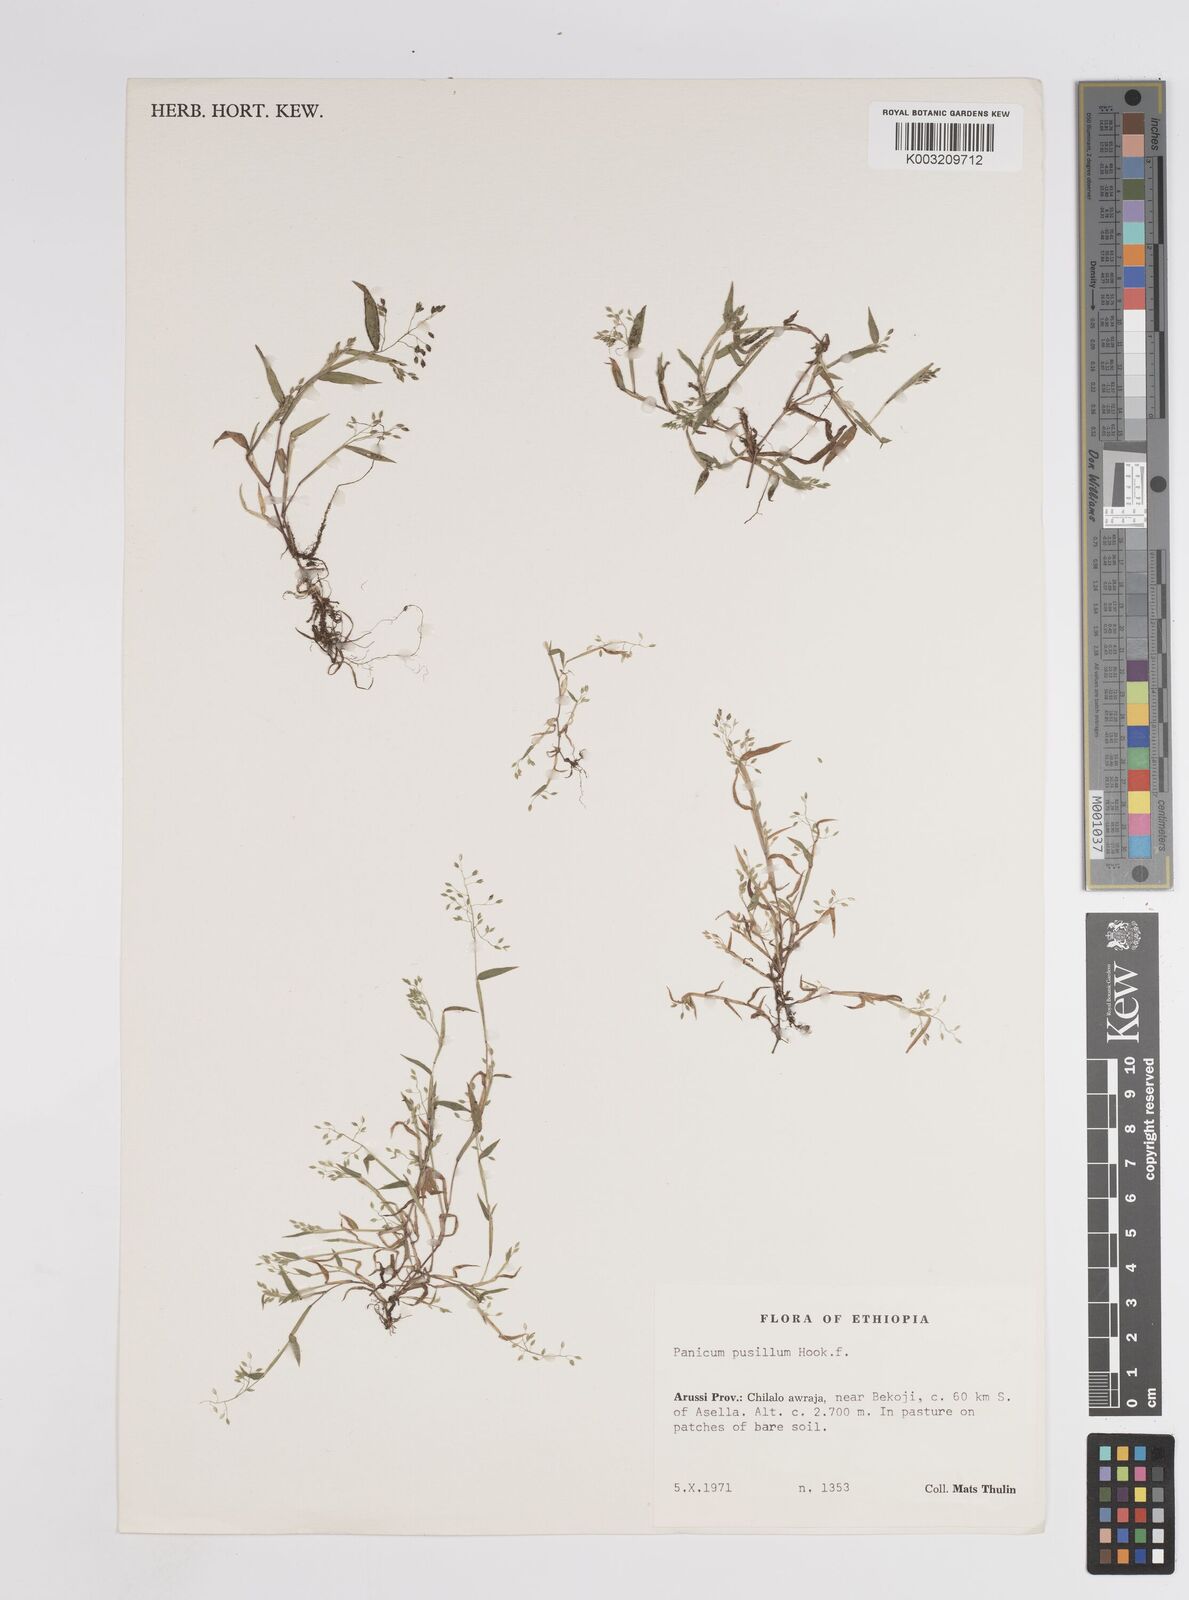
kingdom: Plantae
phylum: Tracheophyta
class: Liliopsida
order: Poales
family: Poaceae
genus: Panicum
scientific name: Panicum pusillum
